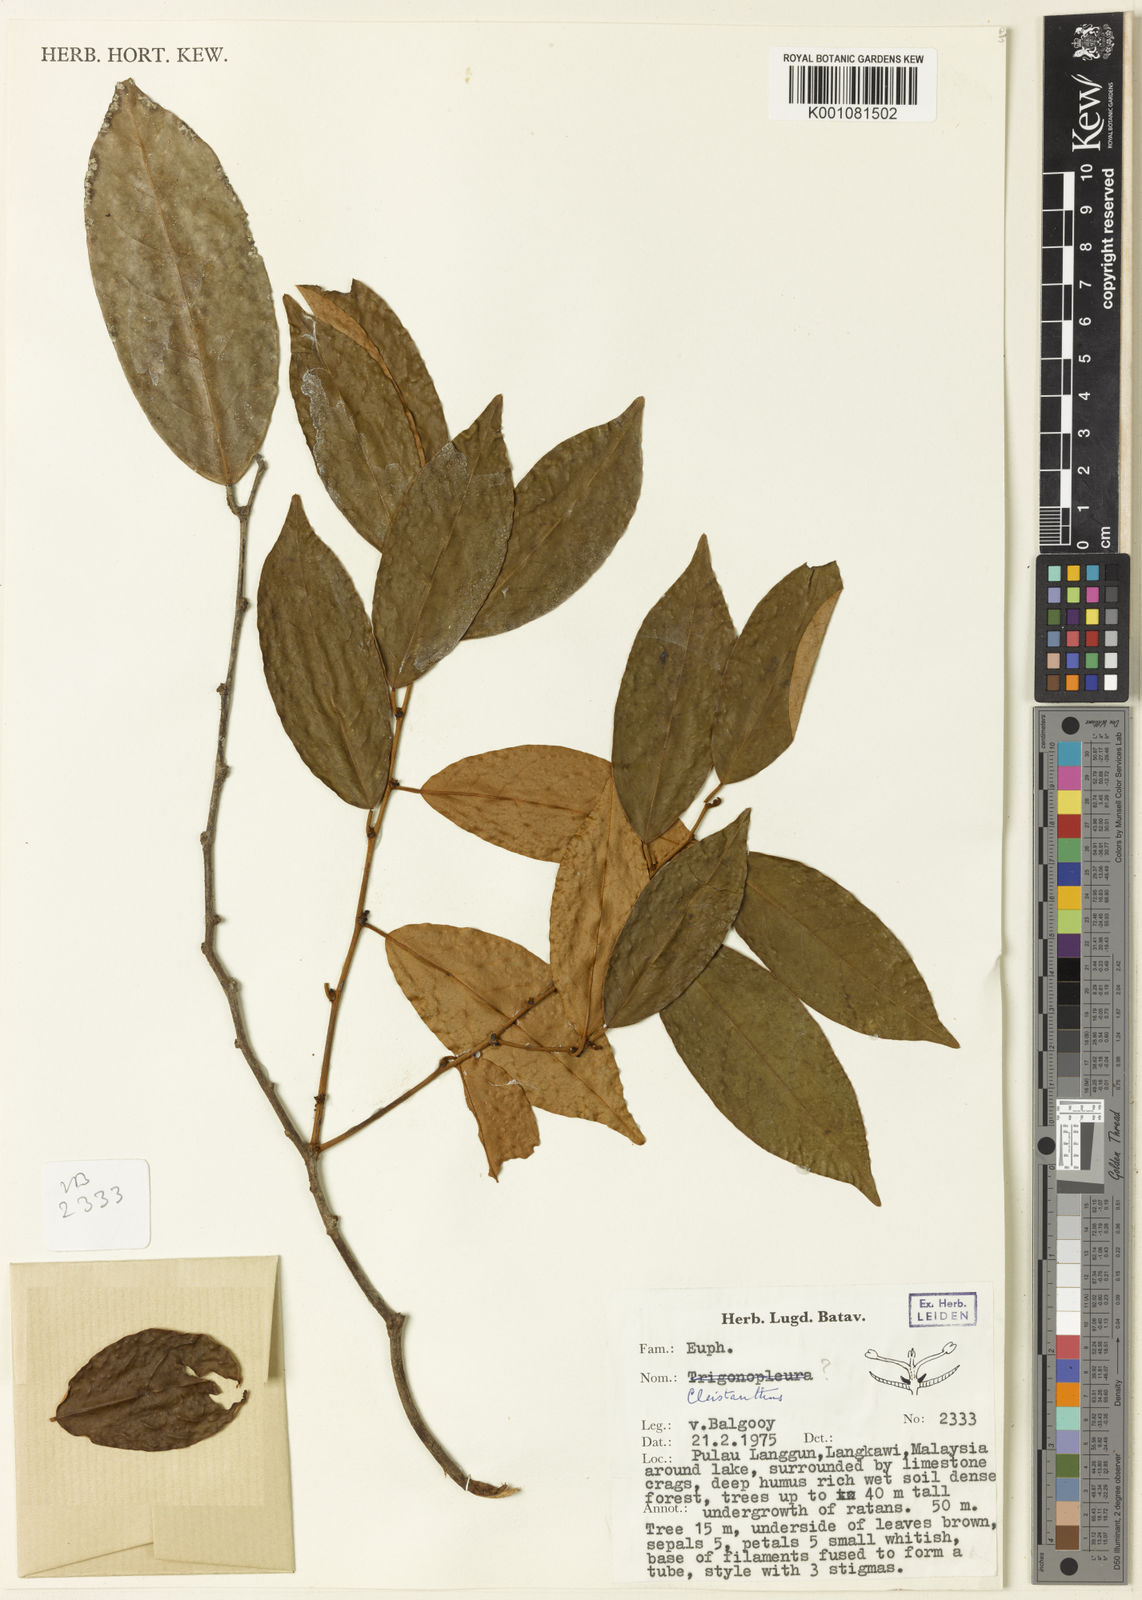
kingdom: Plantae
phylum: Tracheophyta
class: Magnoliopsida
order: Malpighiales
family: Phyllanthaceae
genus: Cleistanthus
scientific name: Cleistanthus langkawiensis
